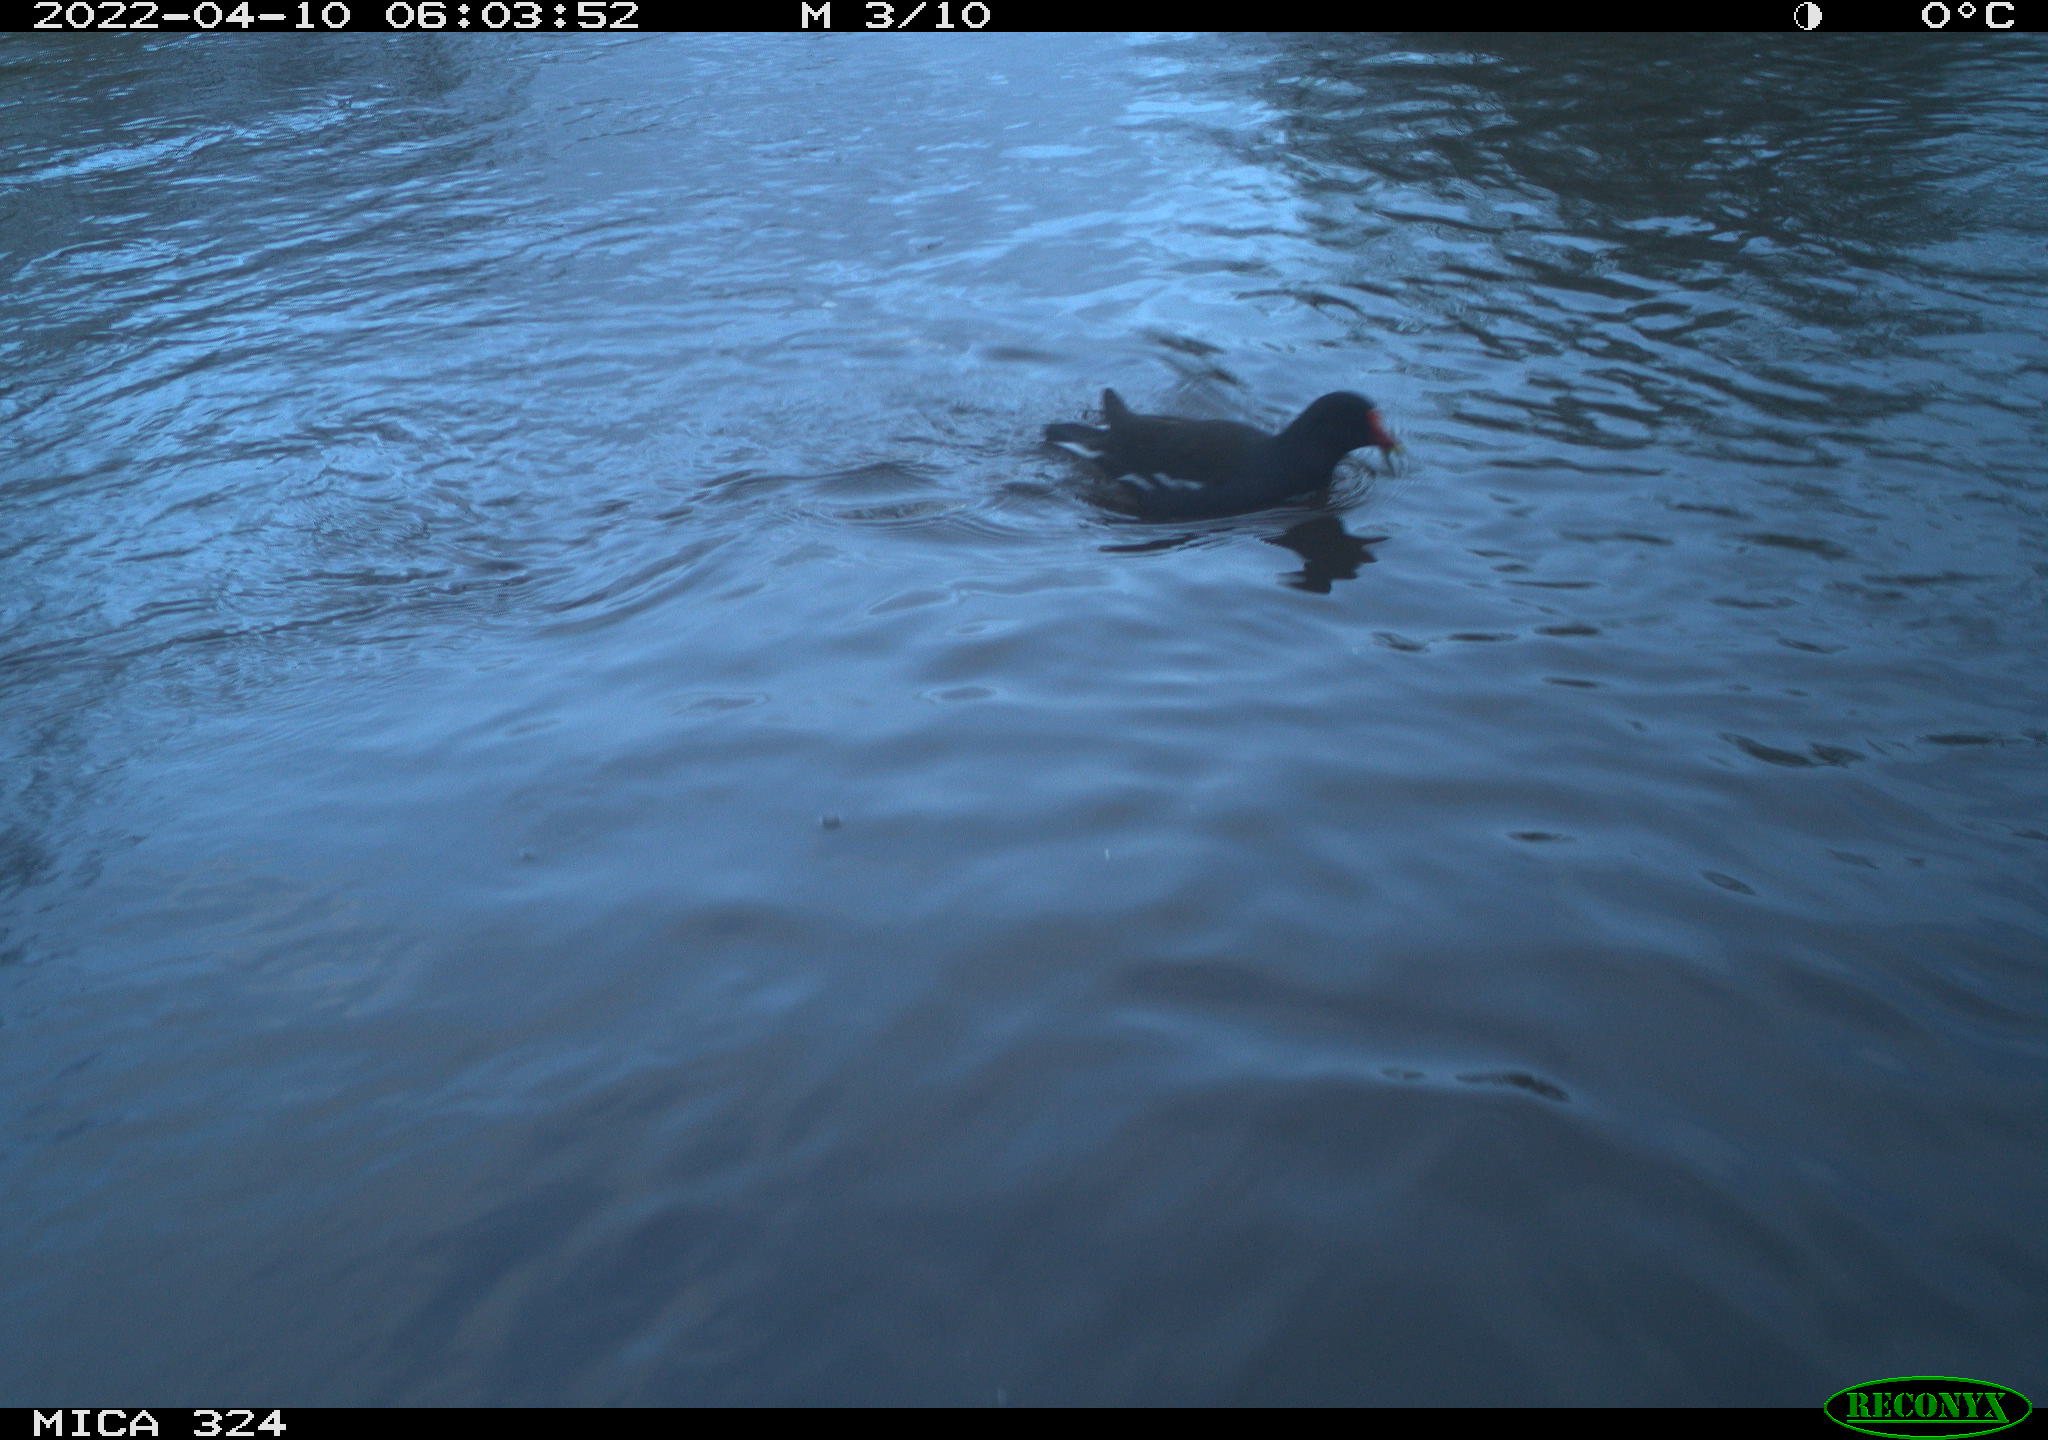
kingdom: Animalia
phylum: Chordata
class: Aves
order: Gruiformes
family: Rallidae
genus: Gallinula
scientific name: Gallinula chloropus
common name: Common moorhen
